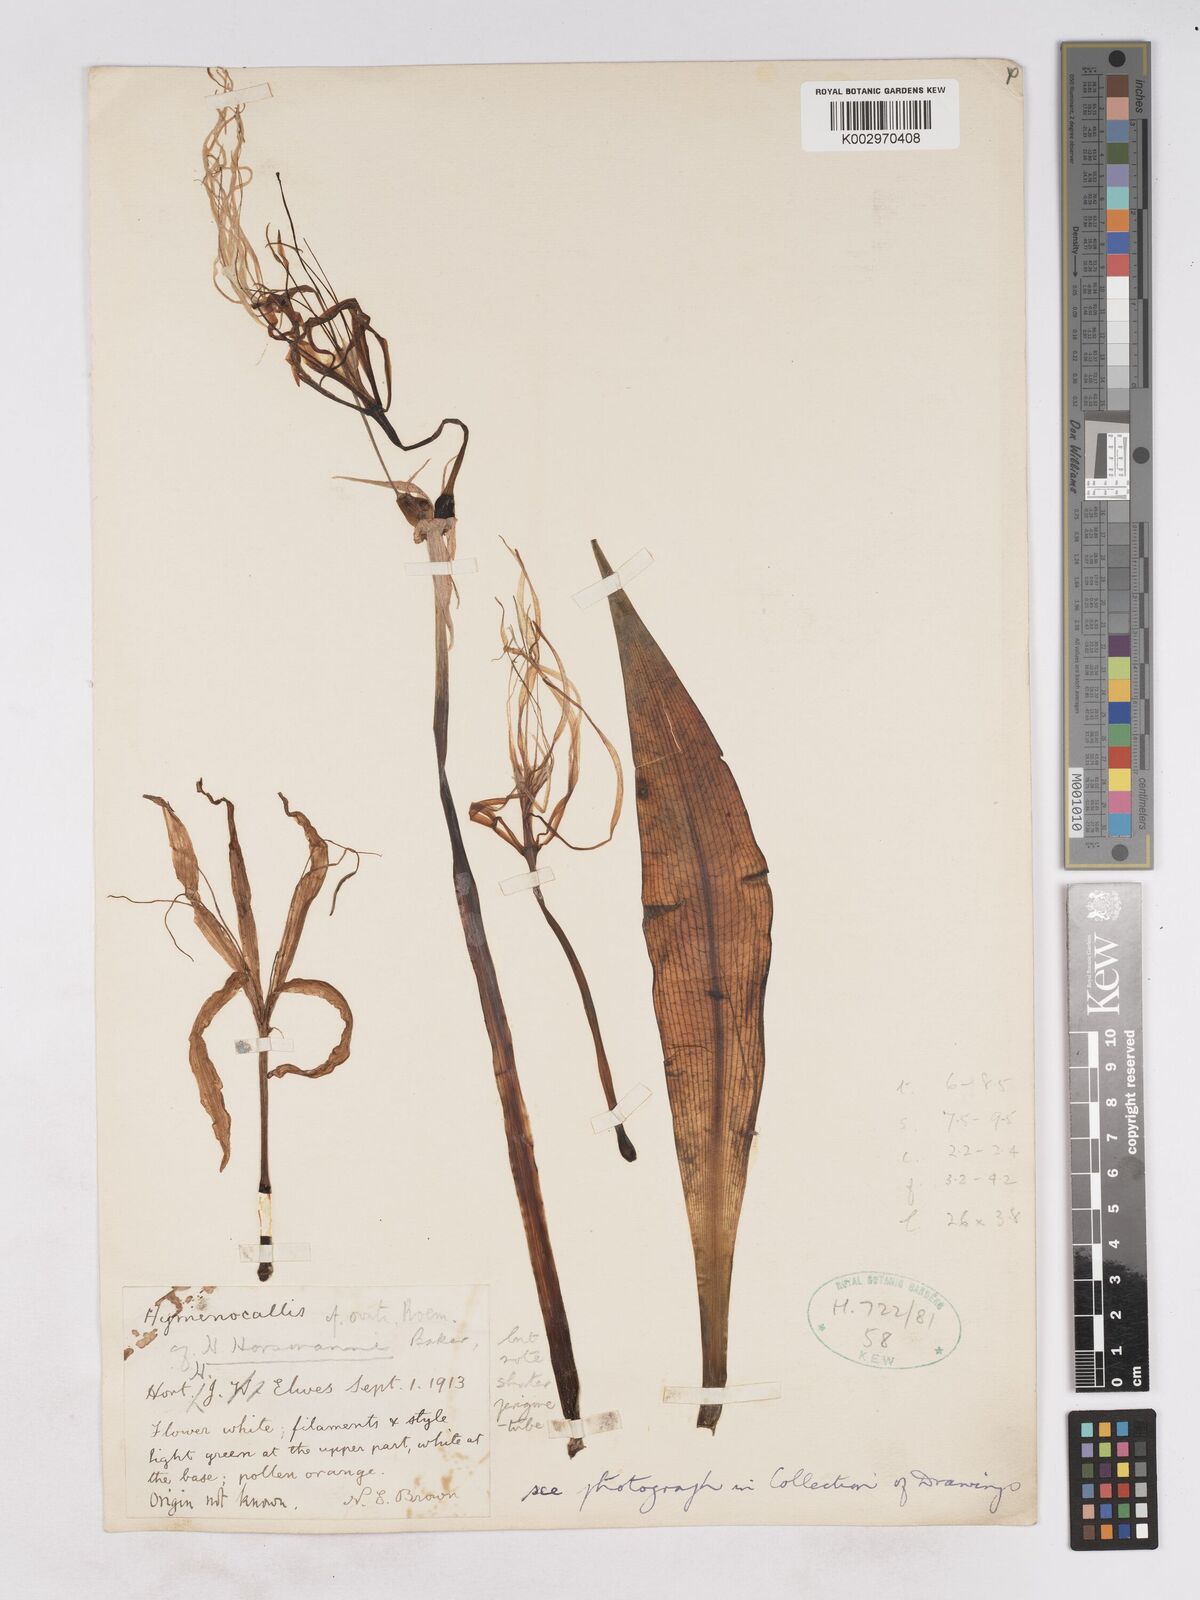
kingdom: Plantae
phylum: Tracheophyta
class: Liliopsida
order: Asparagales
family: Amaryllidaceae
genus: Hymenocallis
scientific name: Hymenocallis choretis
